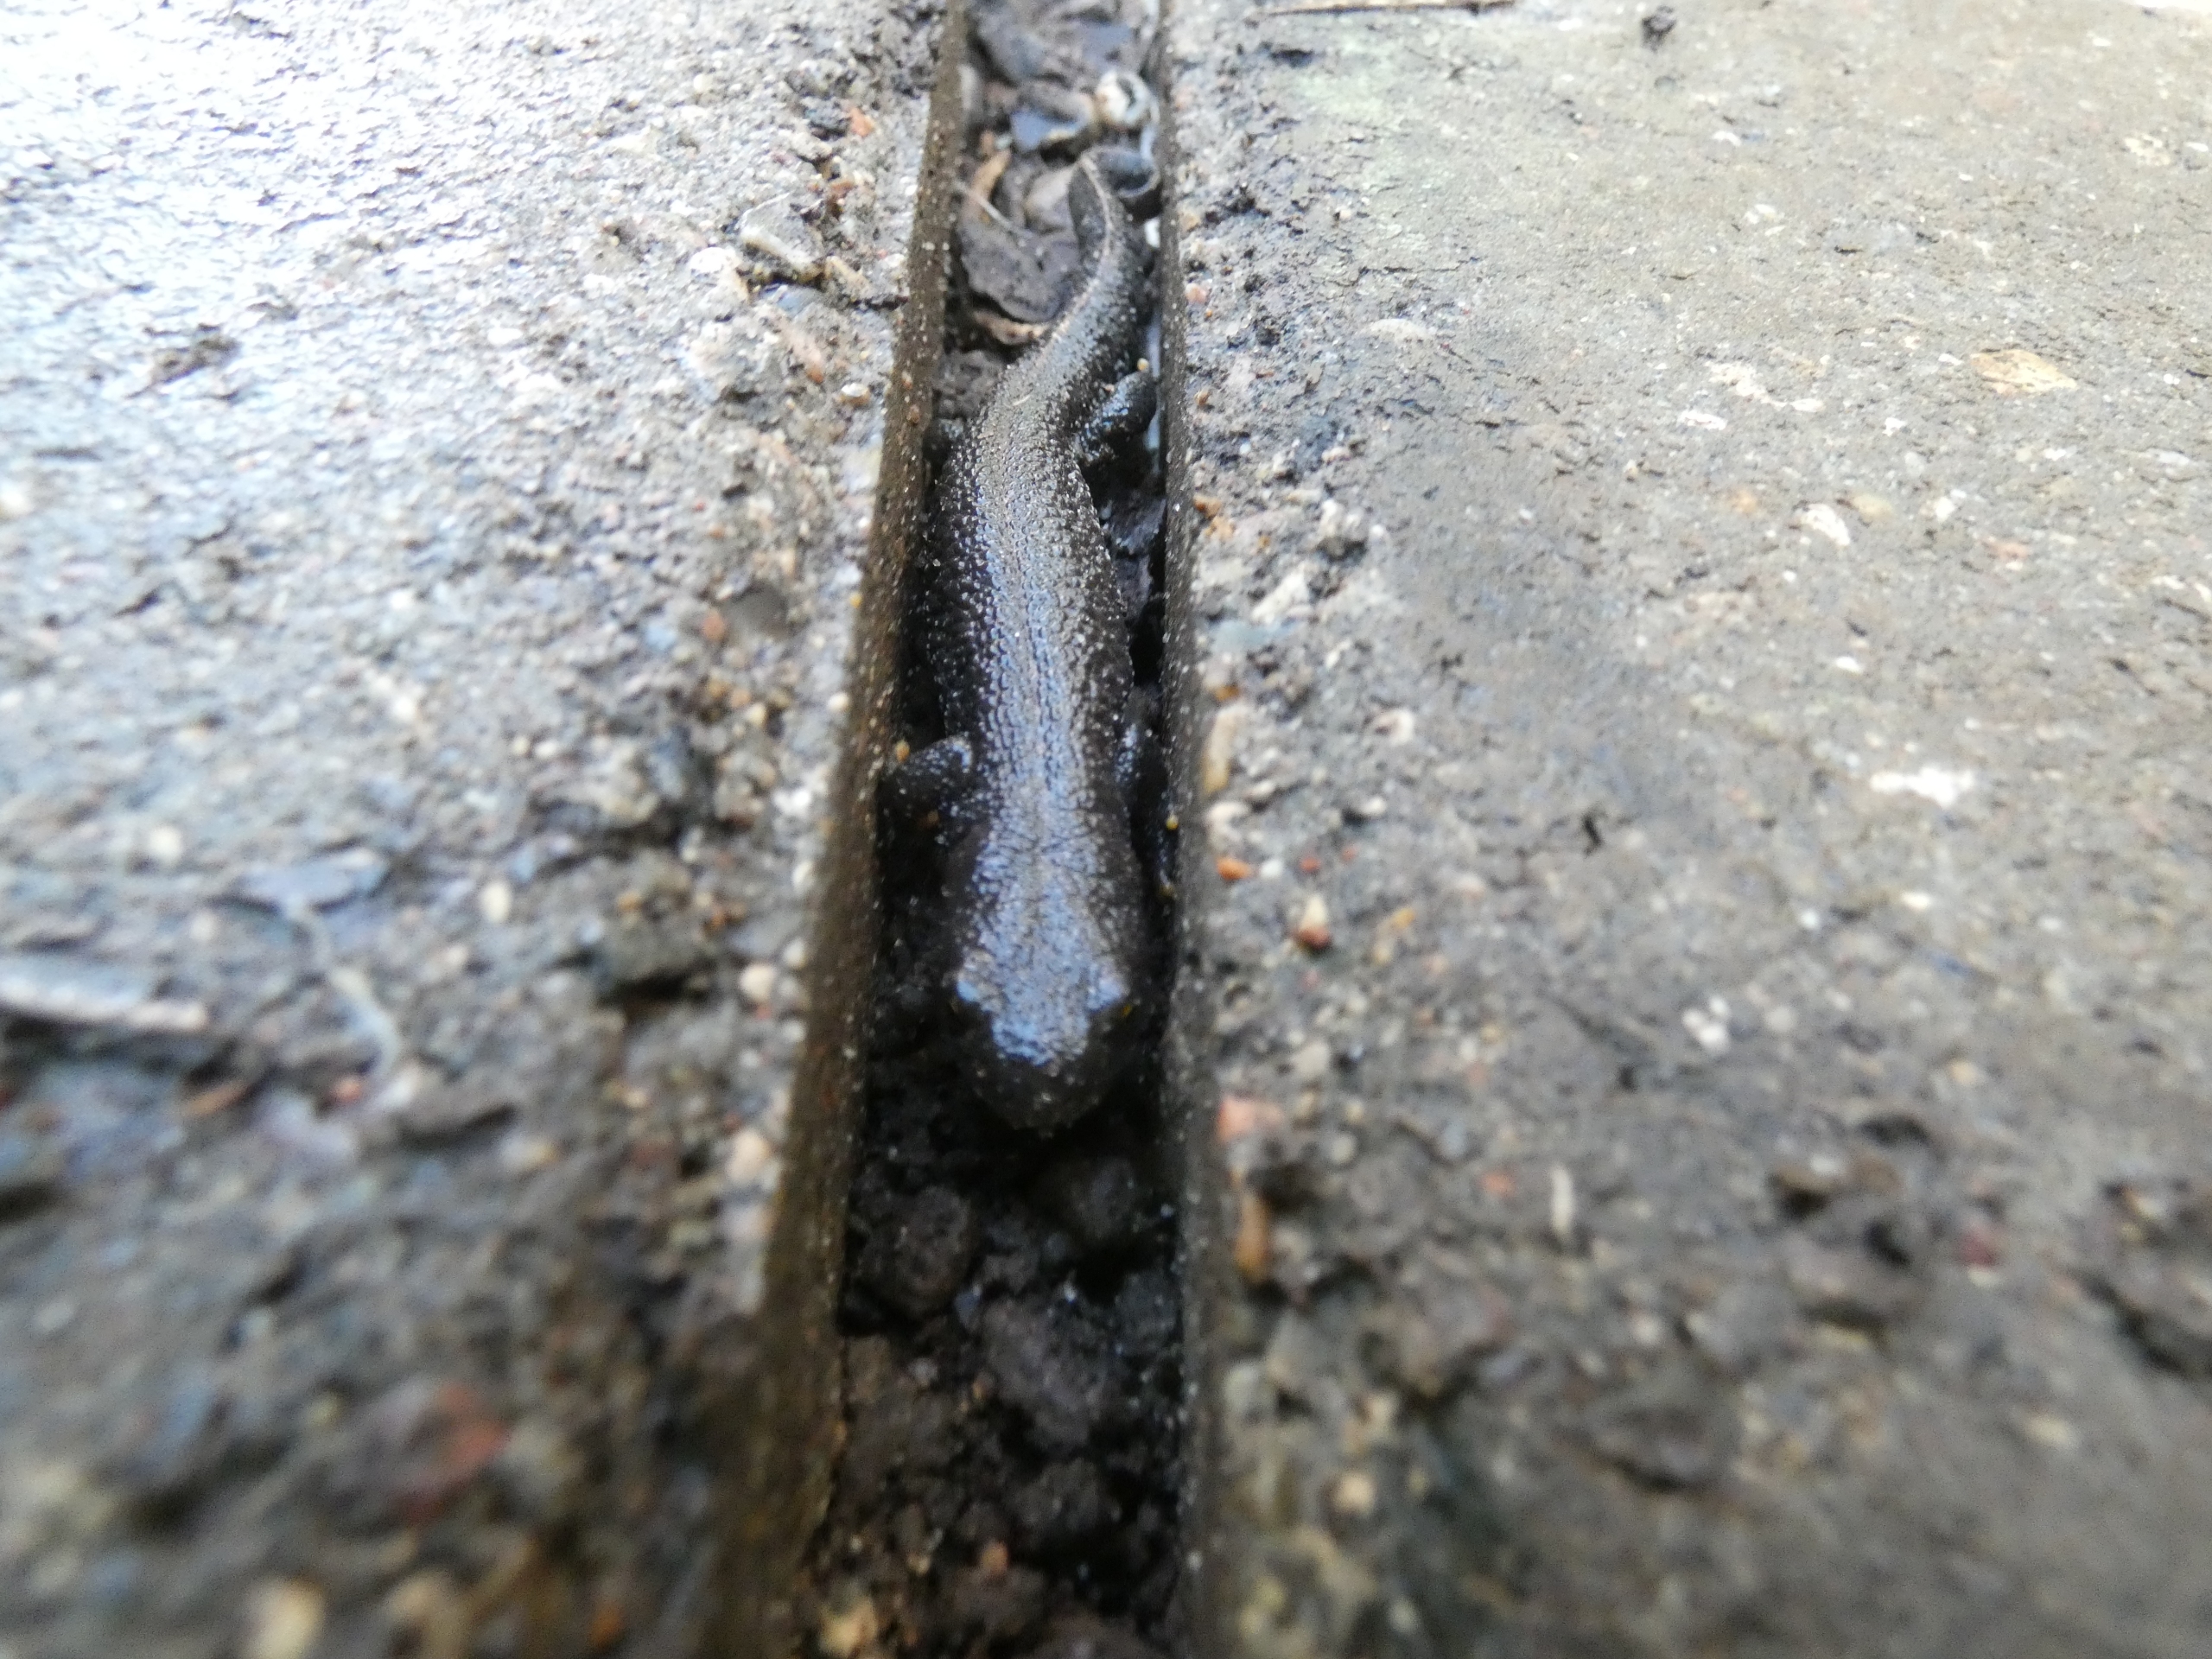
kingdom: Animalia
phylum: Chordata
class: Amphibia
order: Caudata
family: Salamandridae
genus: Triturus
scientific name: Triturus cristatus
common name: Stor vandsalamander
